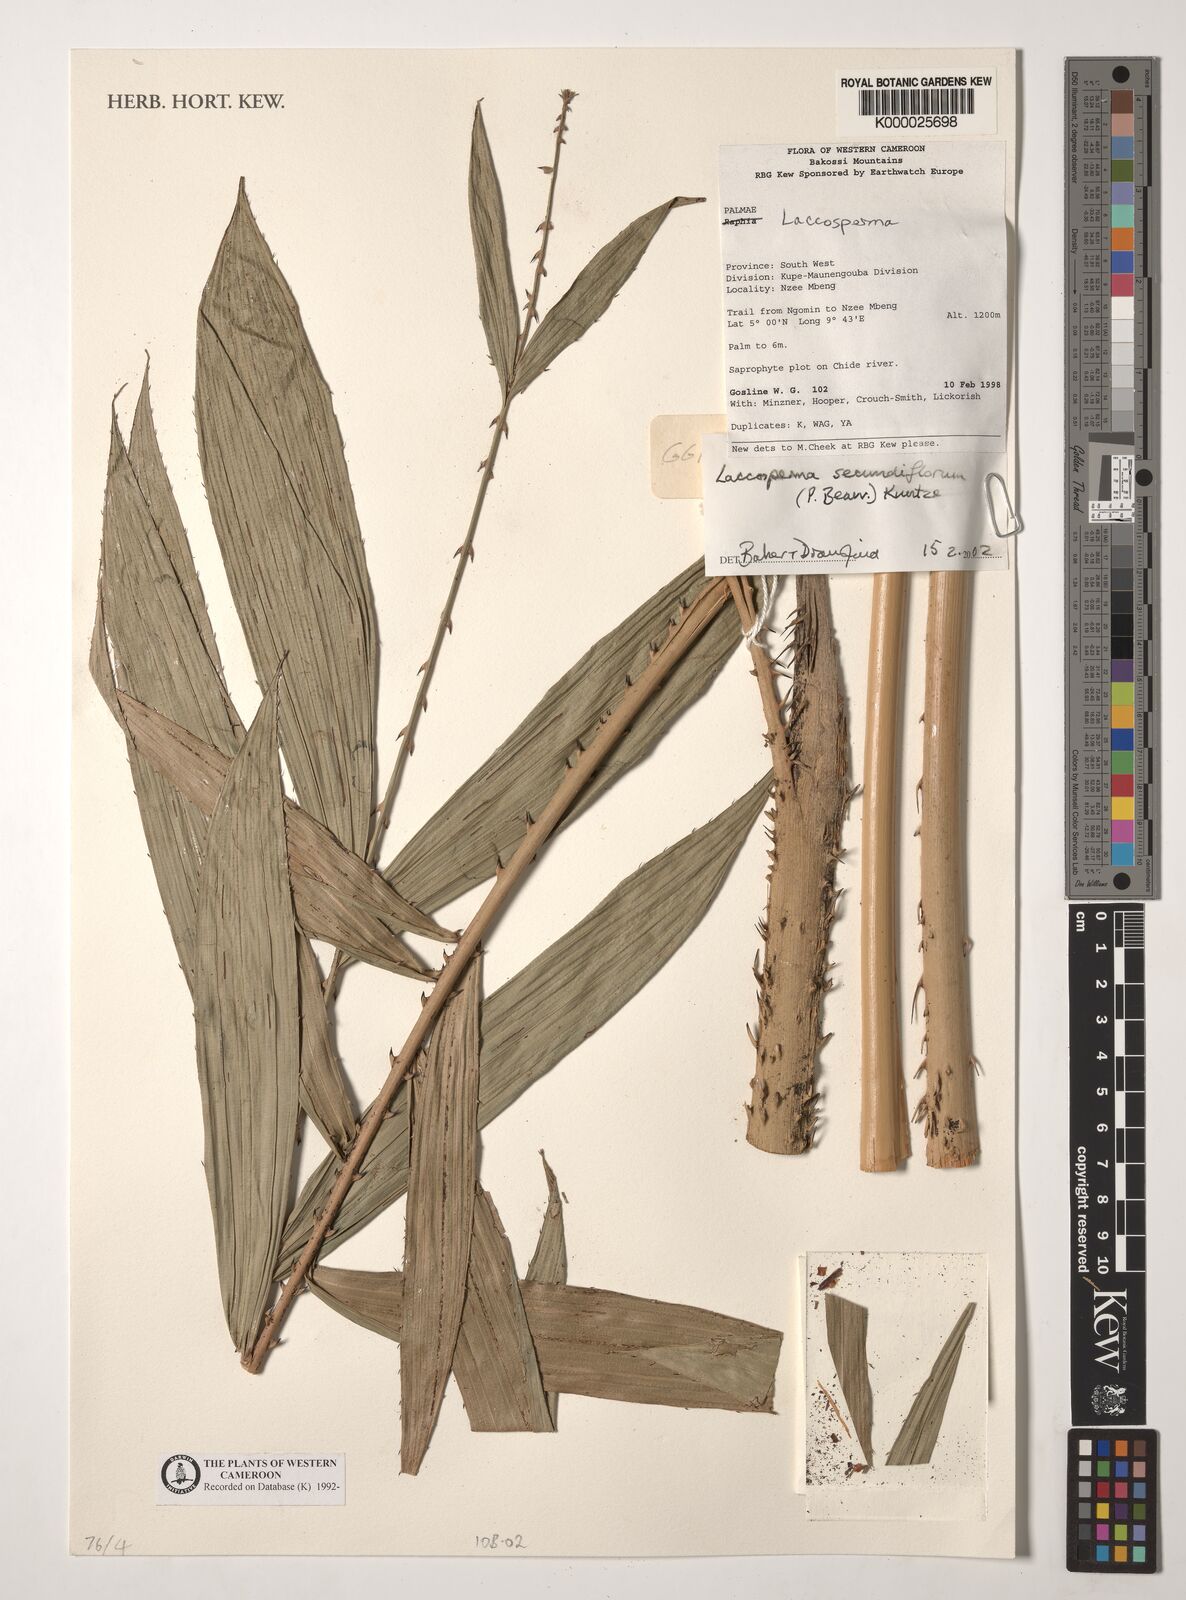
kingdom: Plantae
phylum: Tracheophyta
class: Liliopsida
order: Arecales
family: Arecaceae
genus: Laccosperma
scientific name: Laccosperma secundiflorum
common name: Rattan
